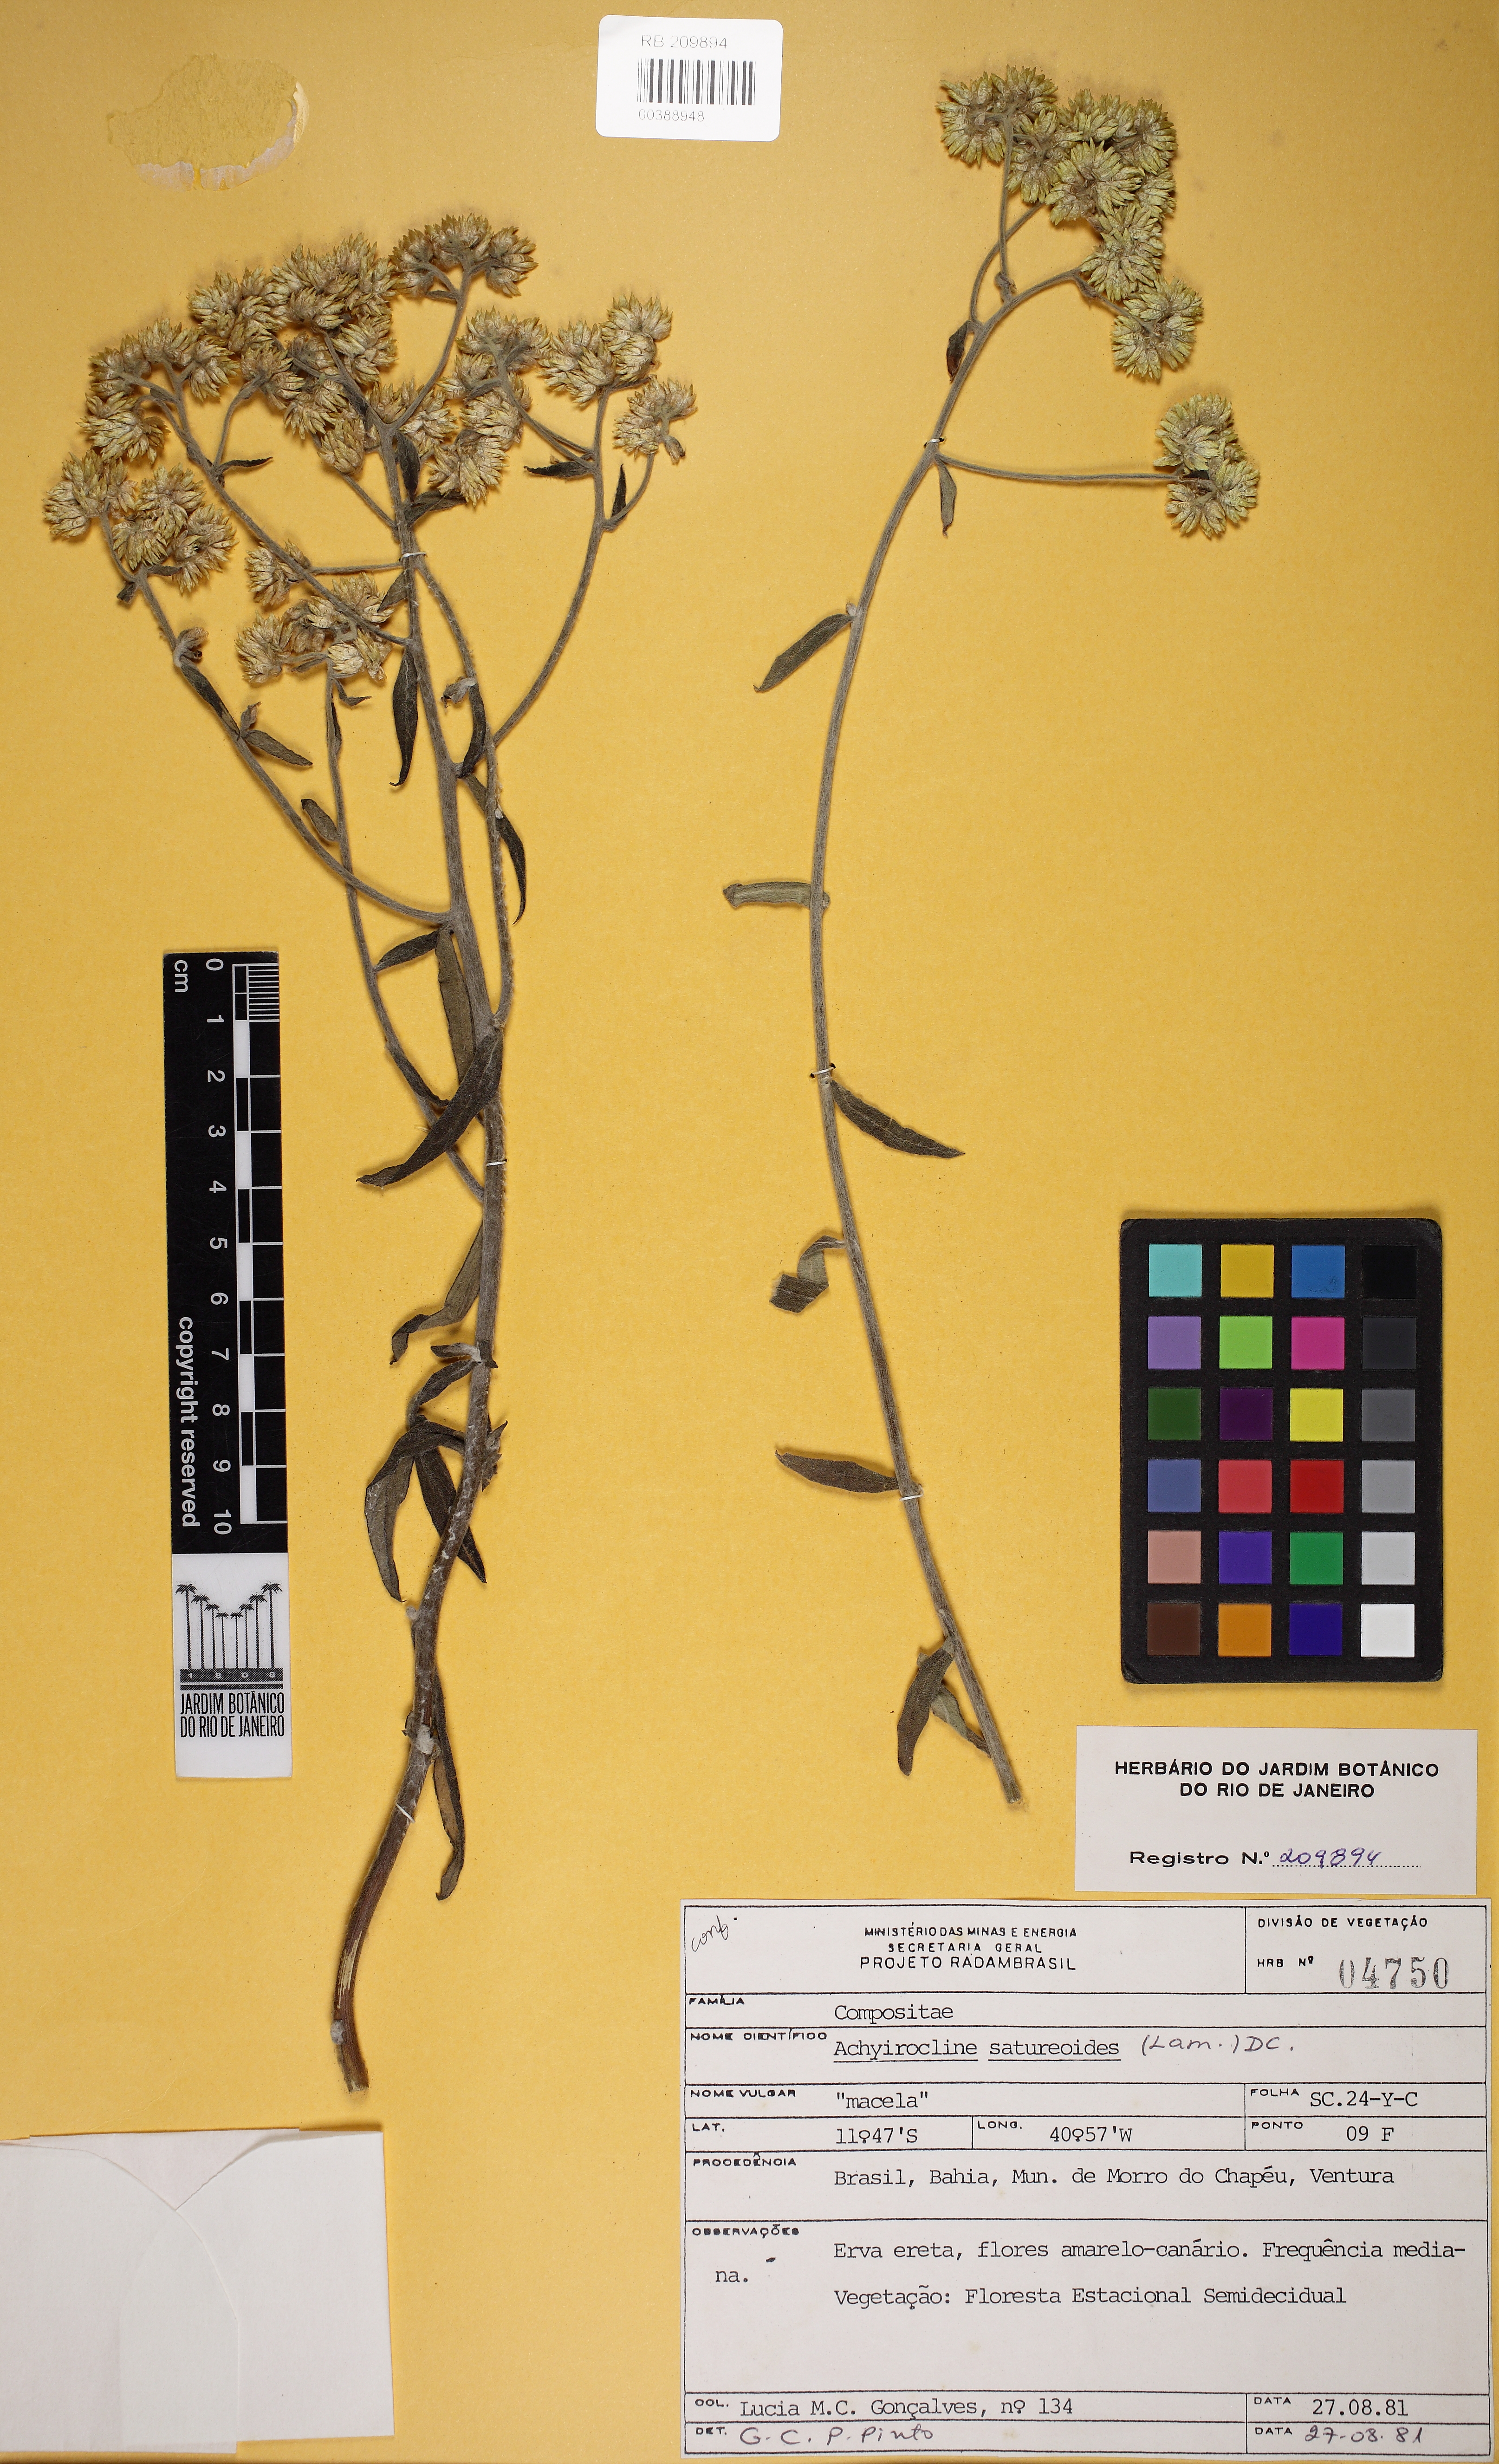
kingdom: Plantae
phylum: Tracheophyta
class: Magnoliopsida
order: Asterales
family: Asteraceae
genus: Achyrocline
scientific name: Achyrocline satureioides
